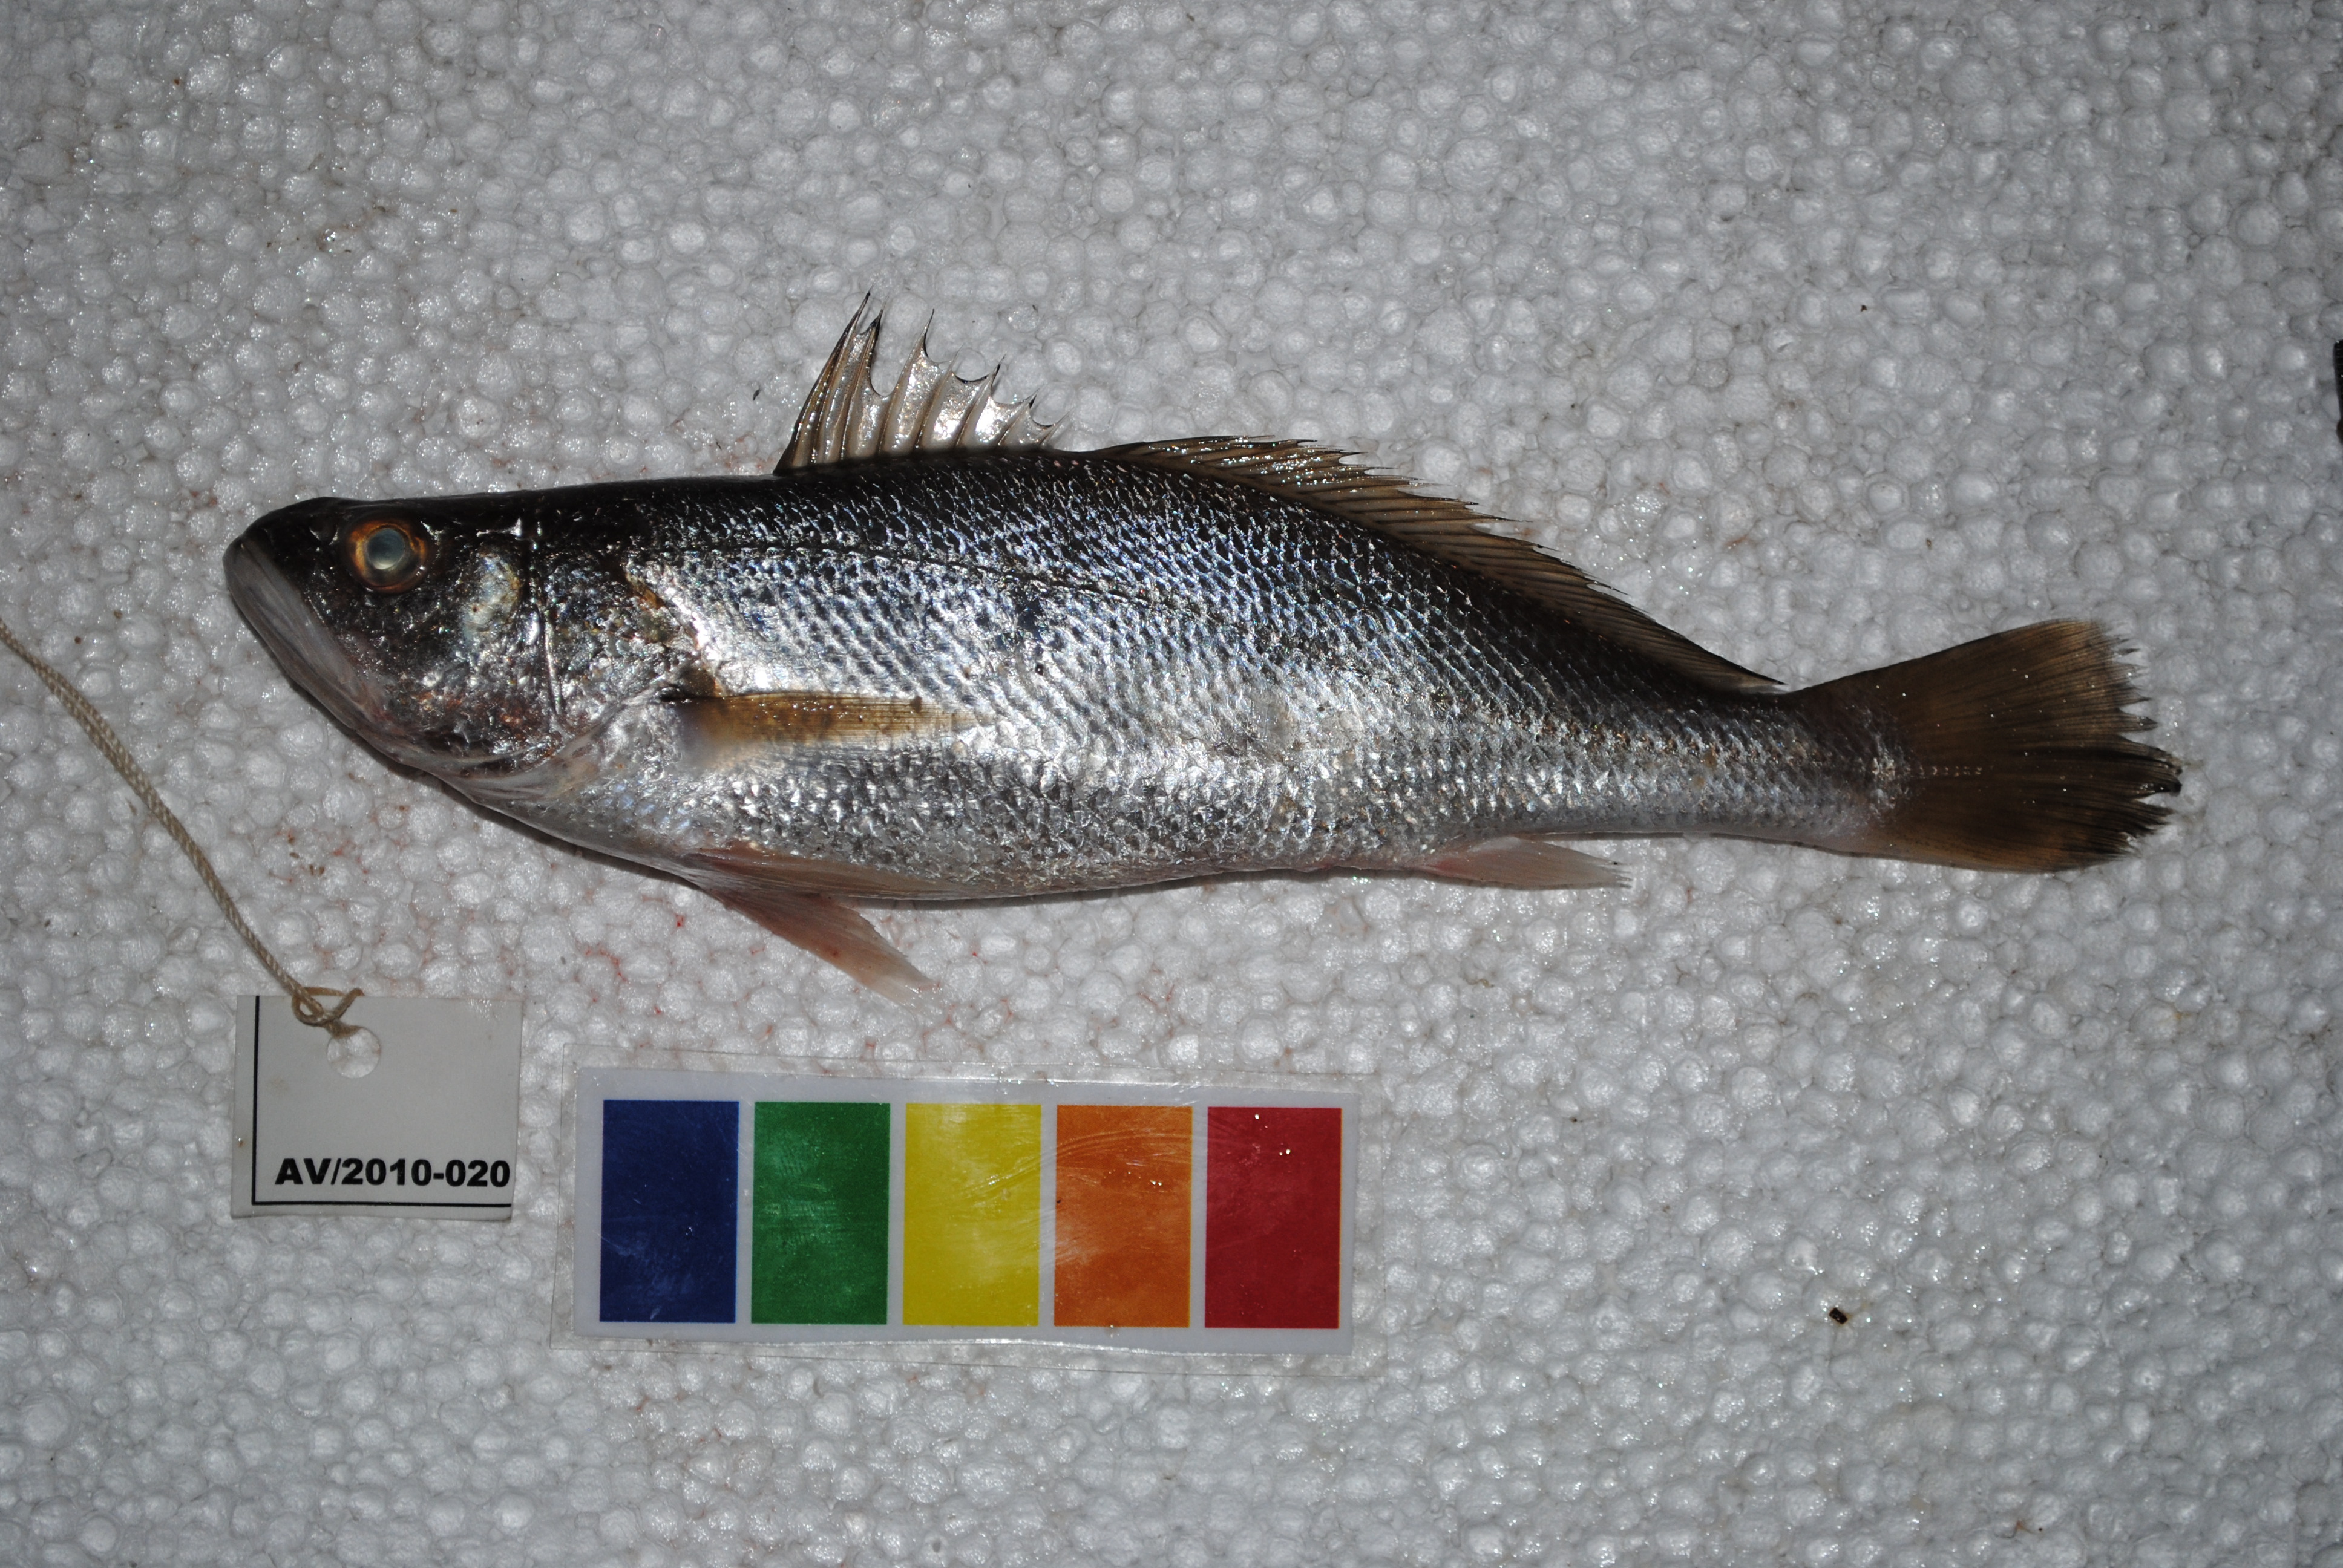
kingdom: Animalia
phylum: Chordata
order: Perciformes
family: Sciaenidae
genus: Otolithes
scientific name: Otolithes ruber
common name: Croaker
